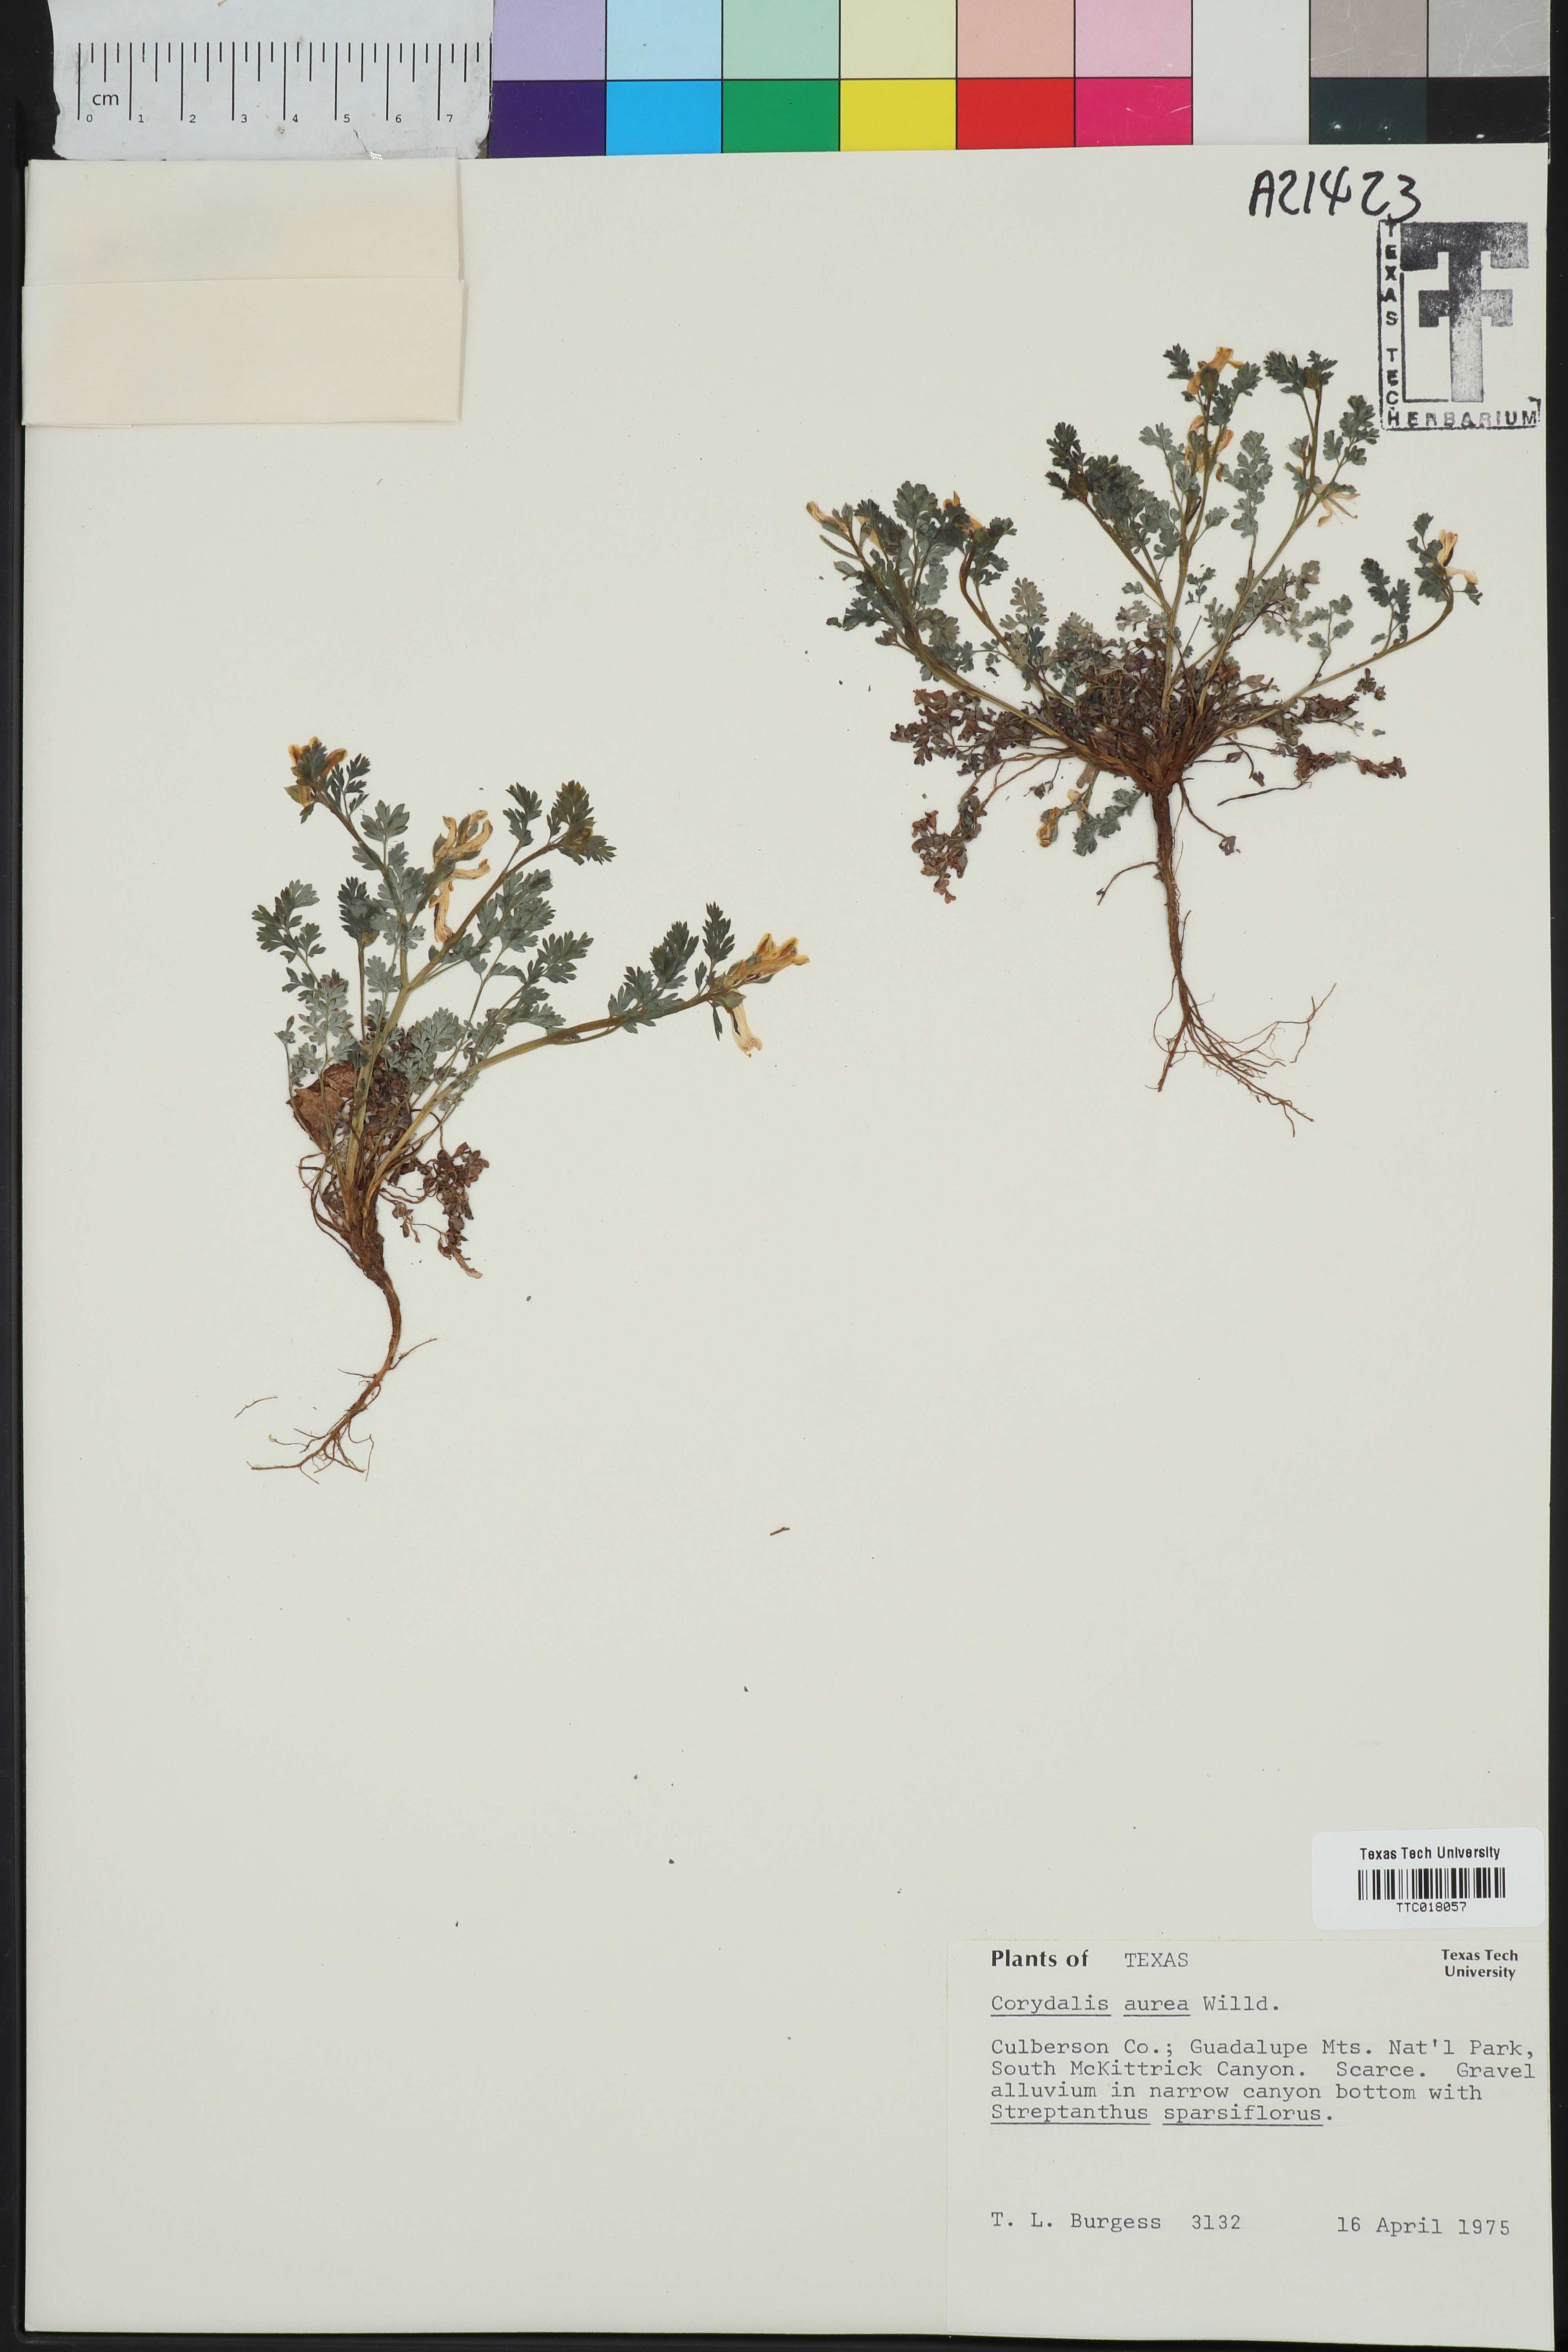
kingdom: Plantae
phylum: Tracheophyta
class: Magnoliopsida
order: Ranunculales
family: Papaveraceae
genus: Corydalis
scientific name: Corydalis aurea
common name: Golden corydalis
